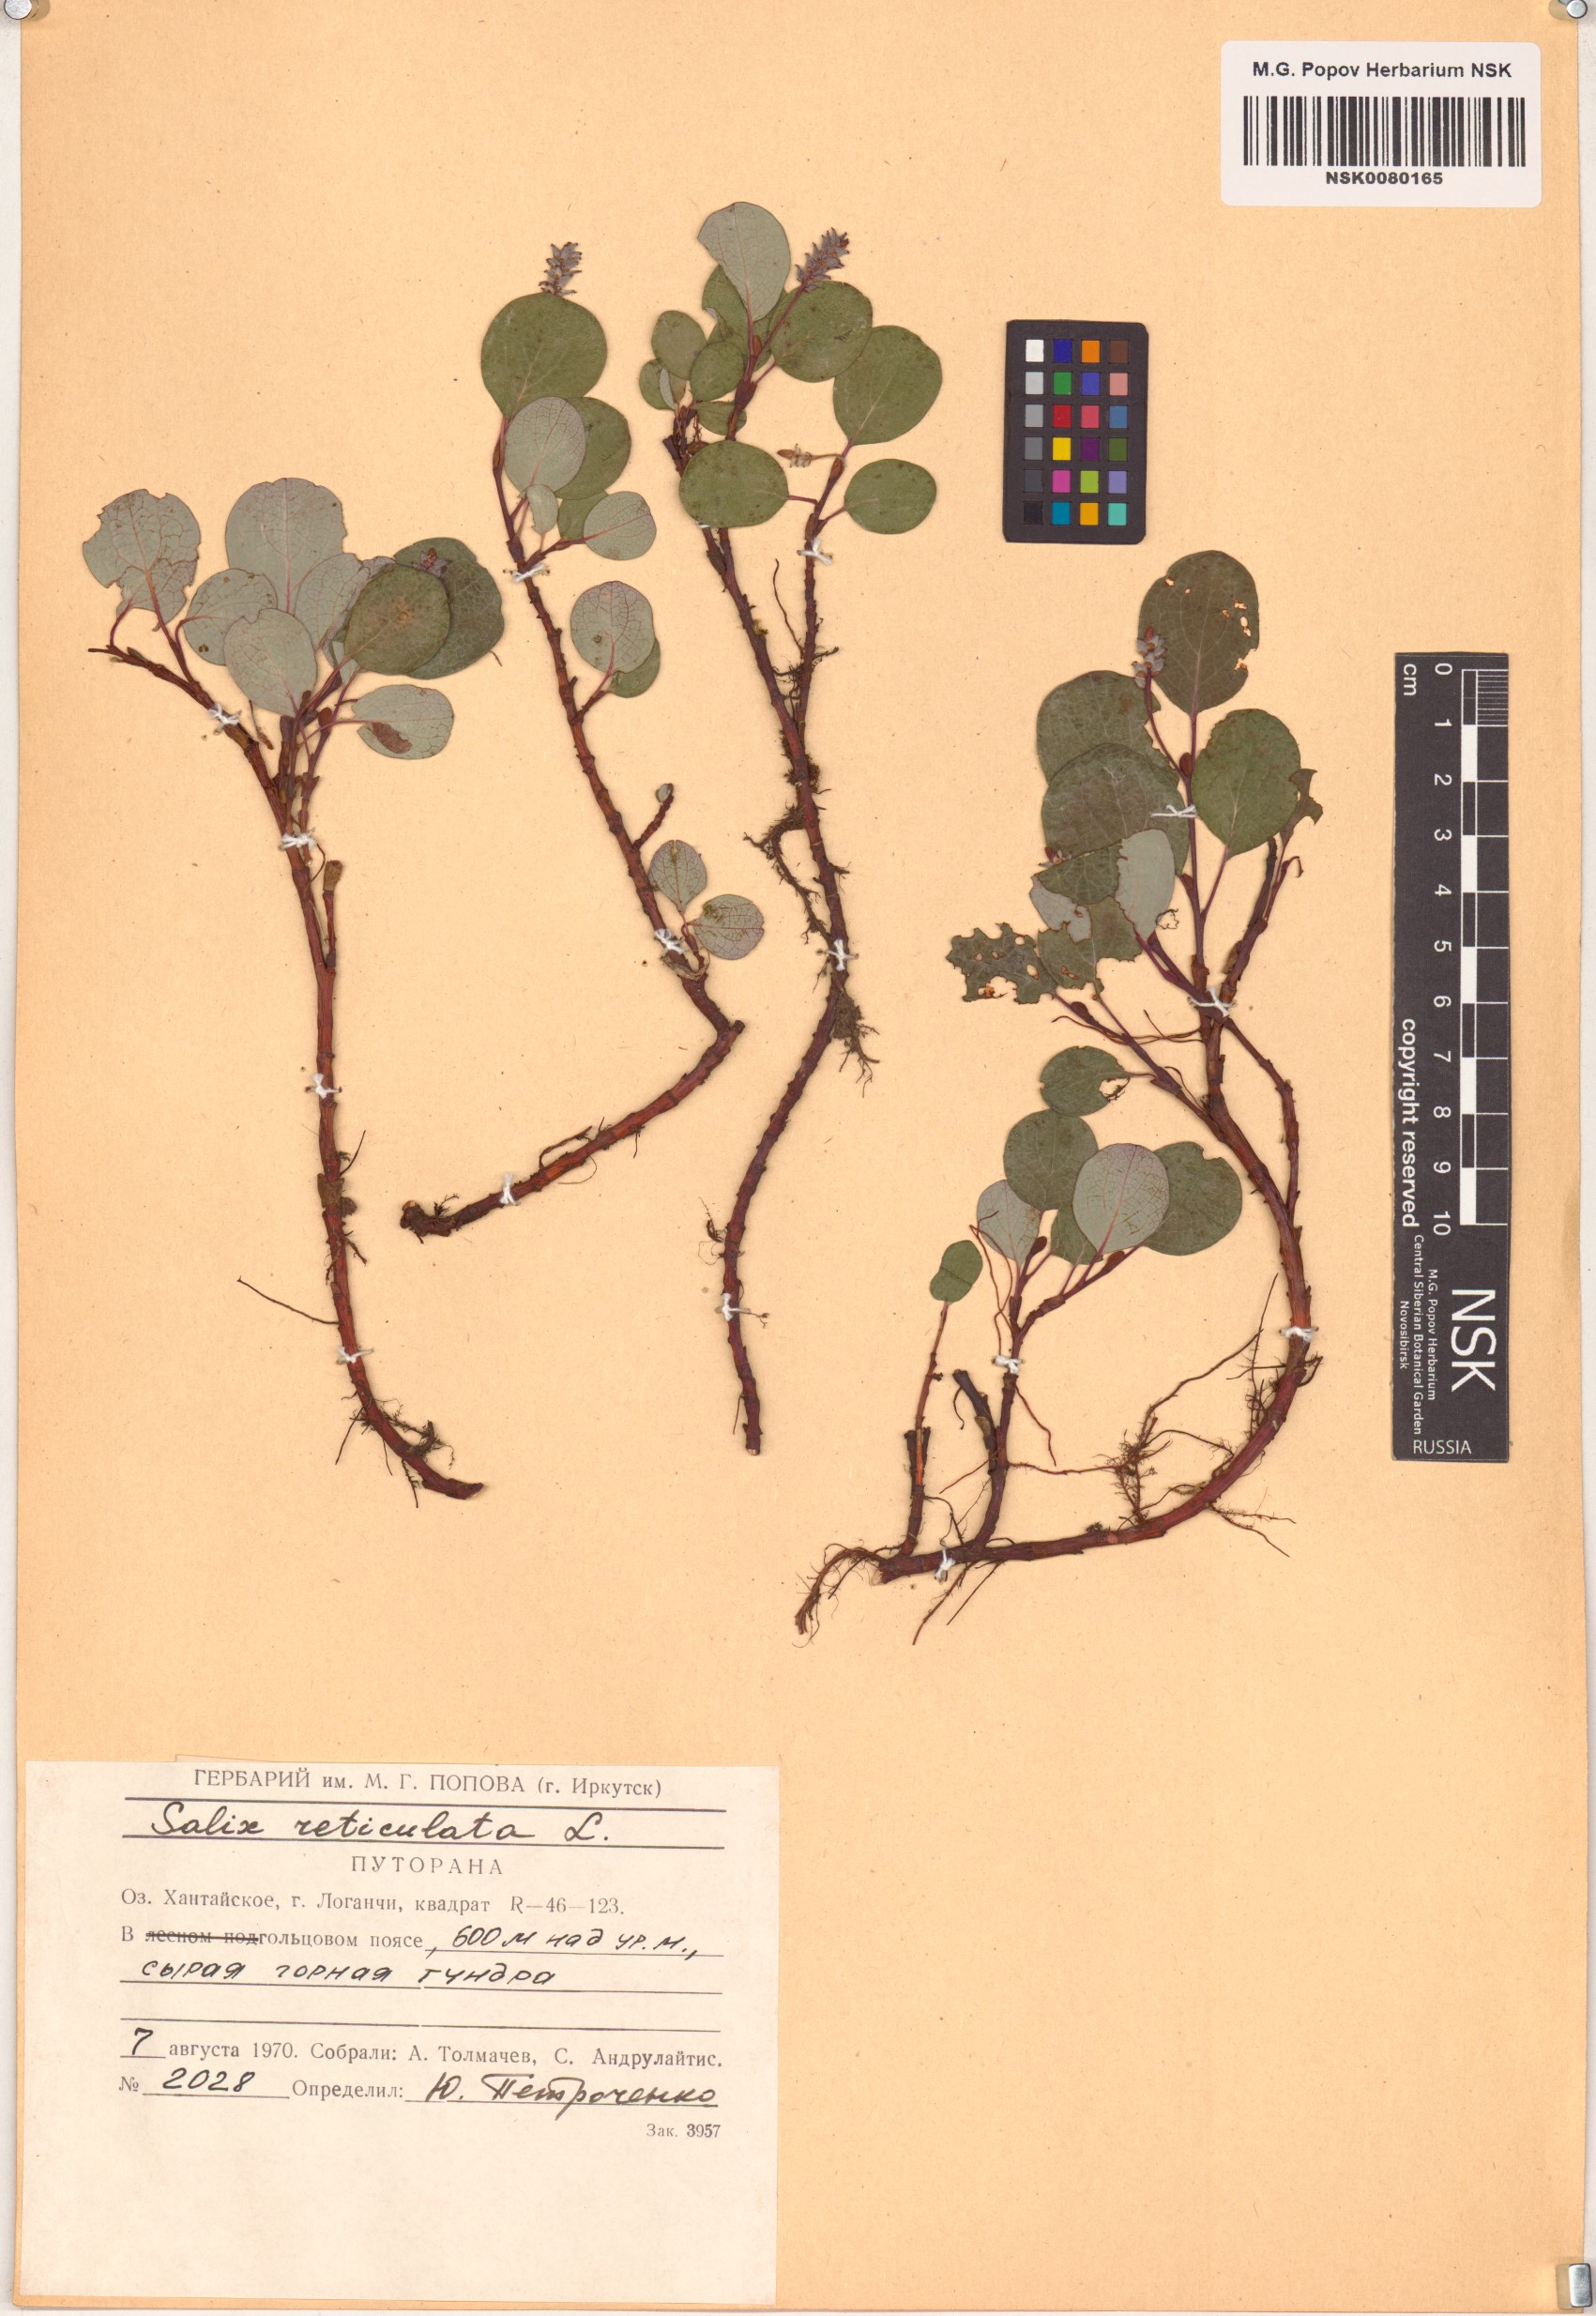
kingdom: Plantae
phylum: Tracheophyta
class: Magnoliopsida
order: Malpighiales
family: Salicaceae
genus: Salix
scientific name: Salix reticulata
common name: Net-leaved willow
